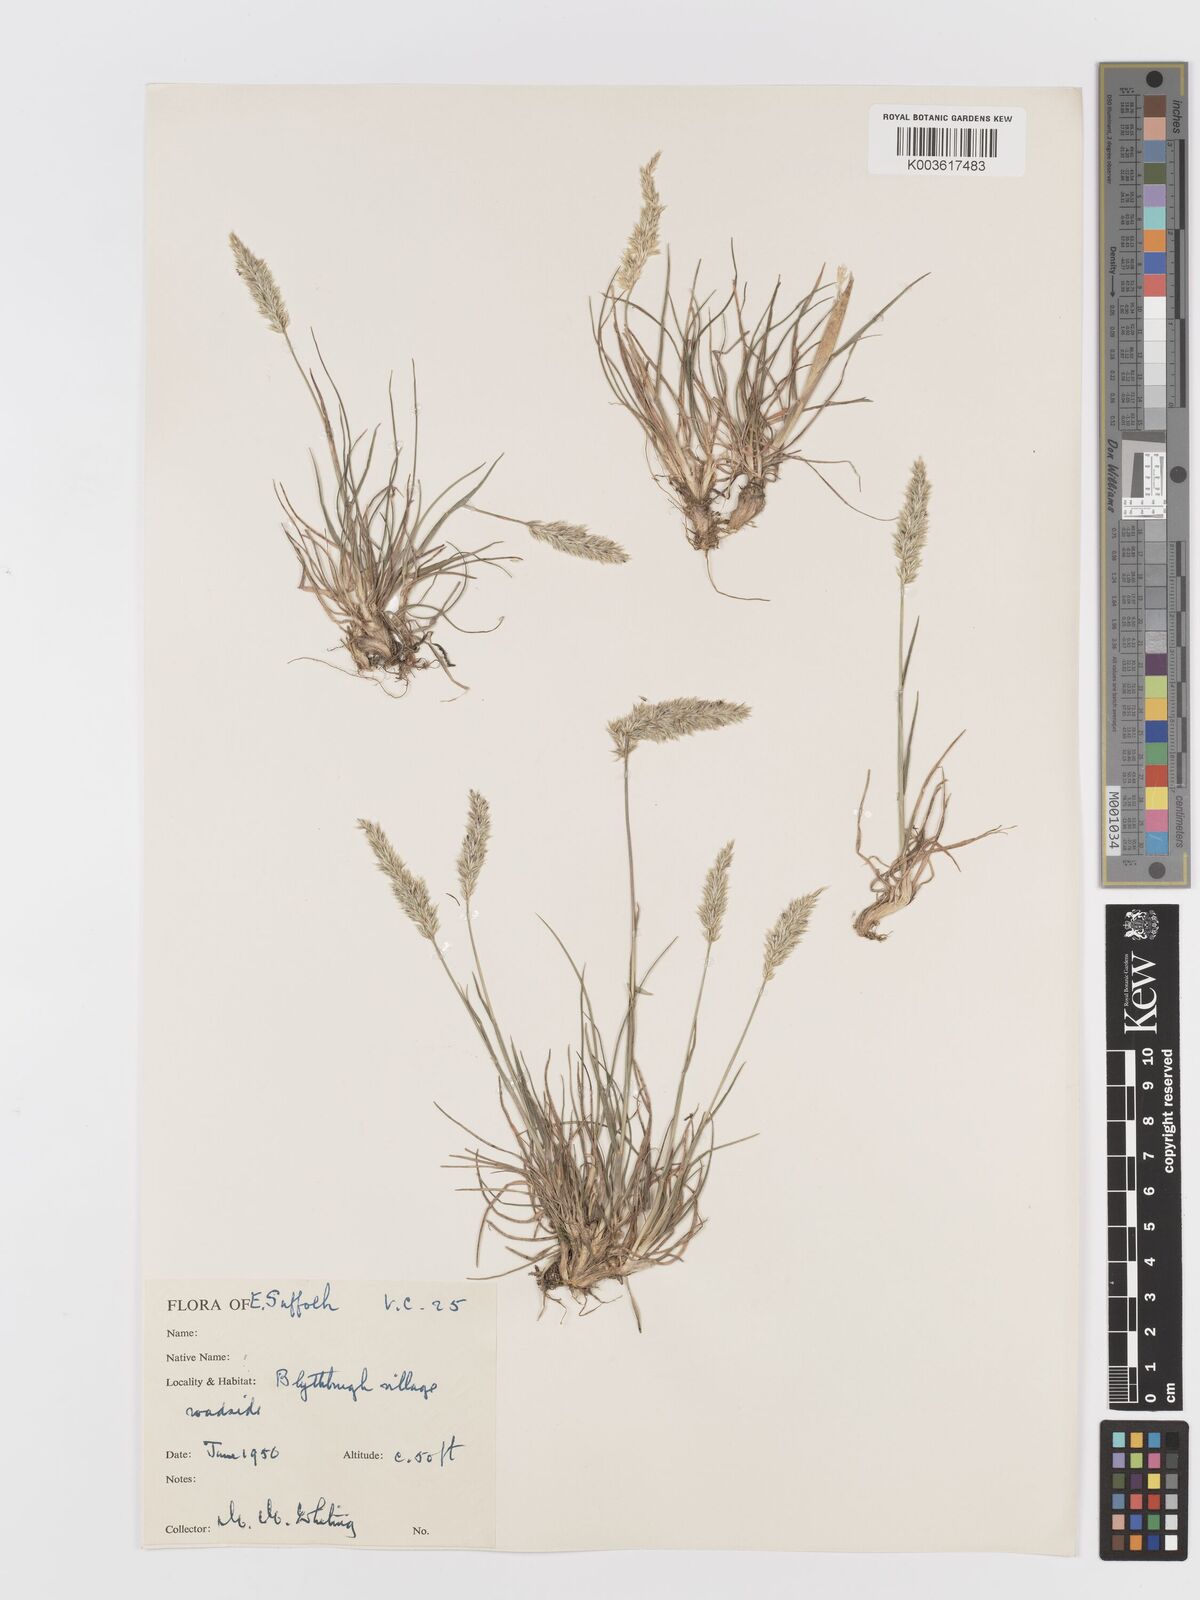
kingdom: Plantae
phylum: Tracheophyta
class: Liliopsida
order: Poales
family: Poaceae
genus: Koeleria
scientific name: Koeleria
